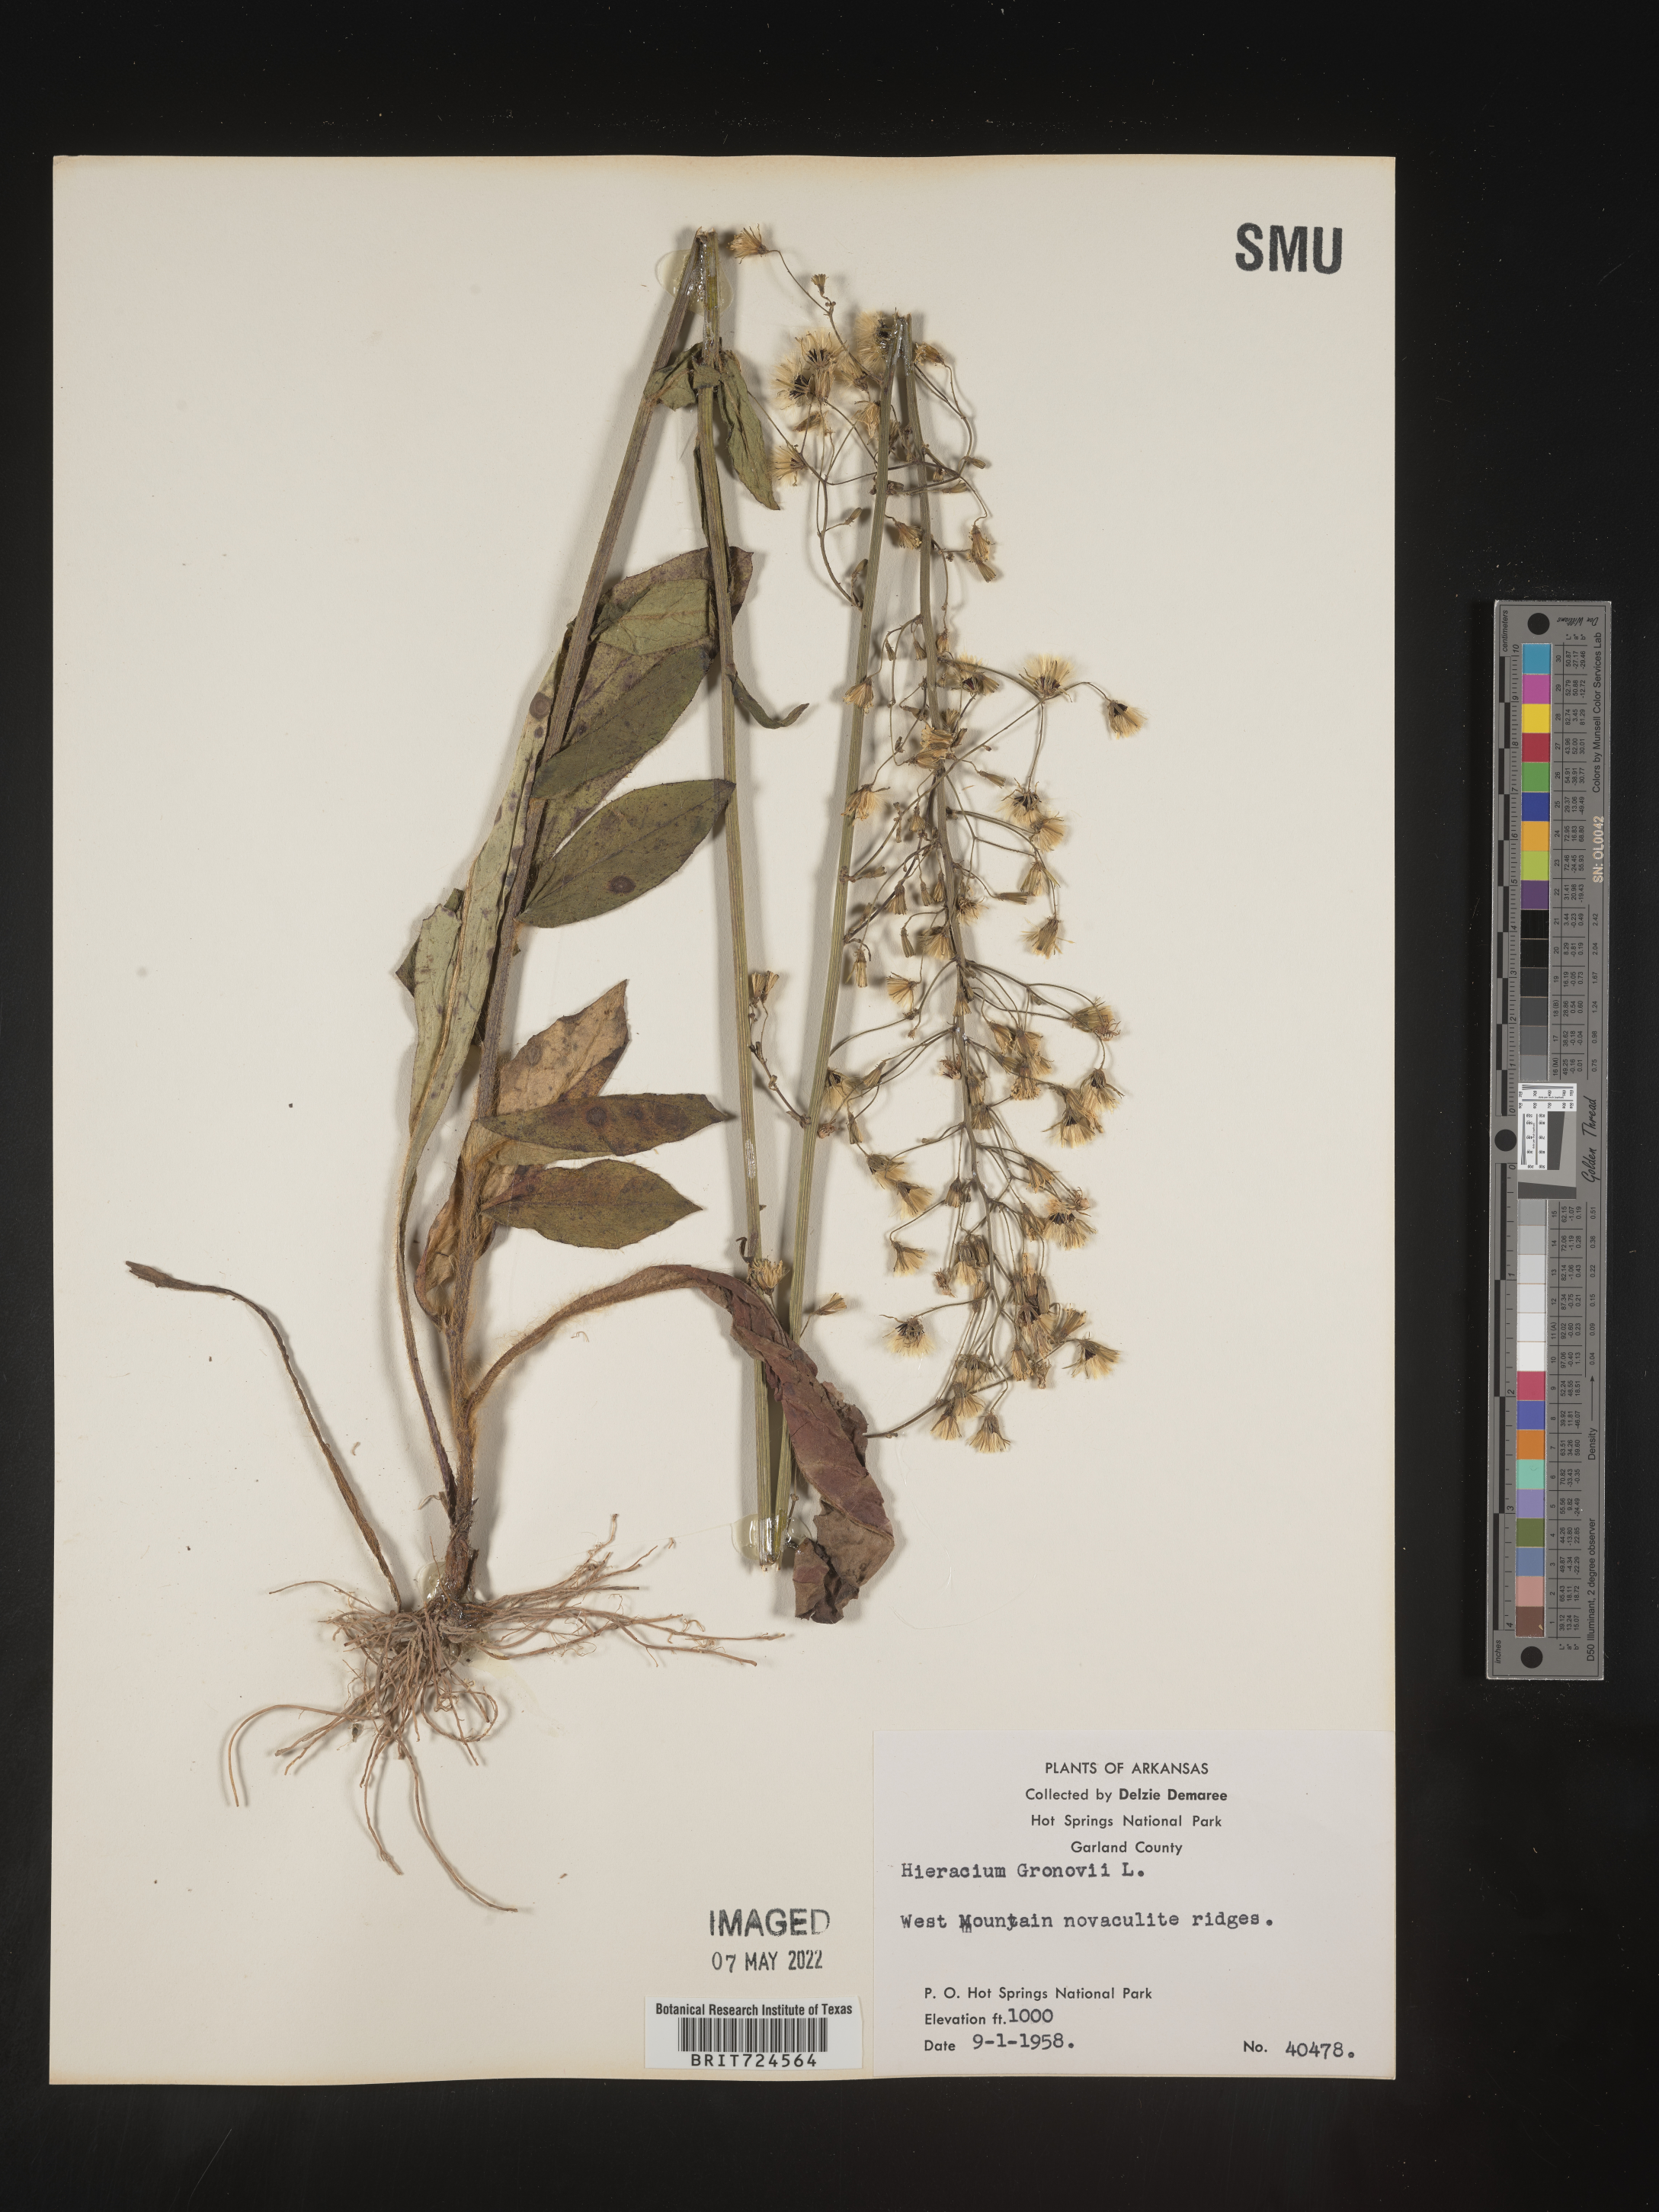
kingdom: Plantae
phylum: Tracheophyta
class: Magnoliopsida
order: Asterales
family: Asteraceae
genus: Hieracium
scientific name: Hieracium gronovii
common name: Beaked hawkweed
